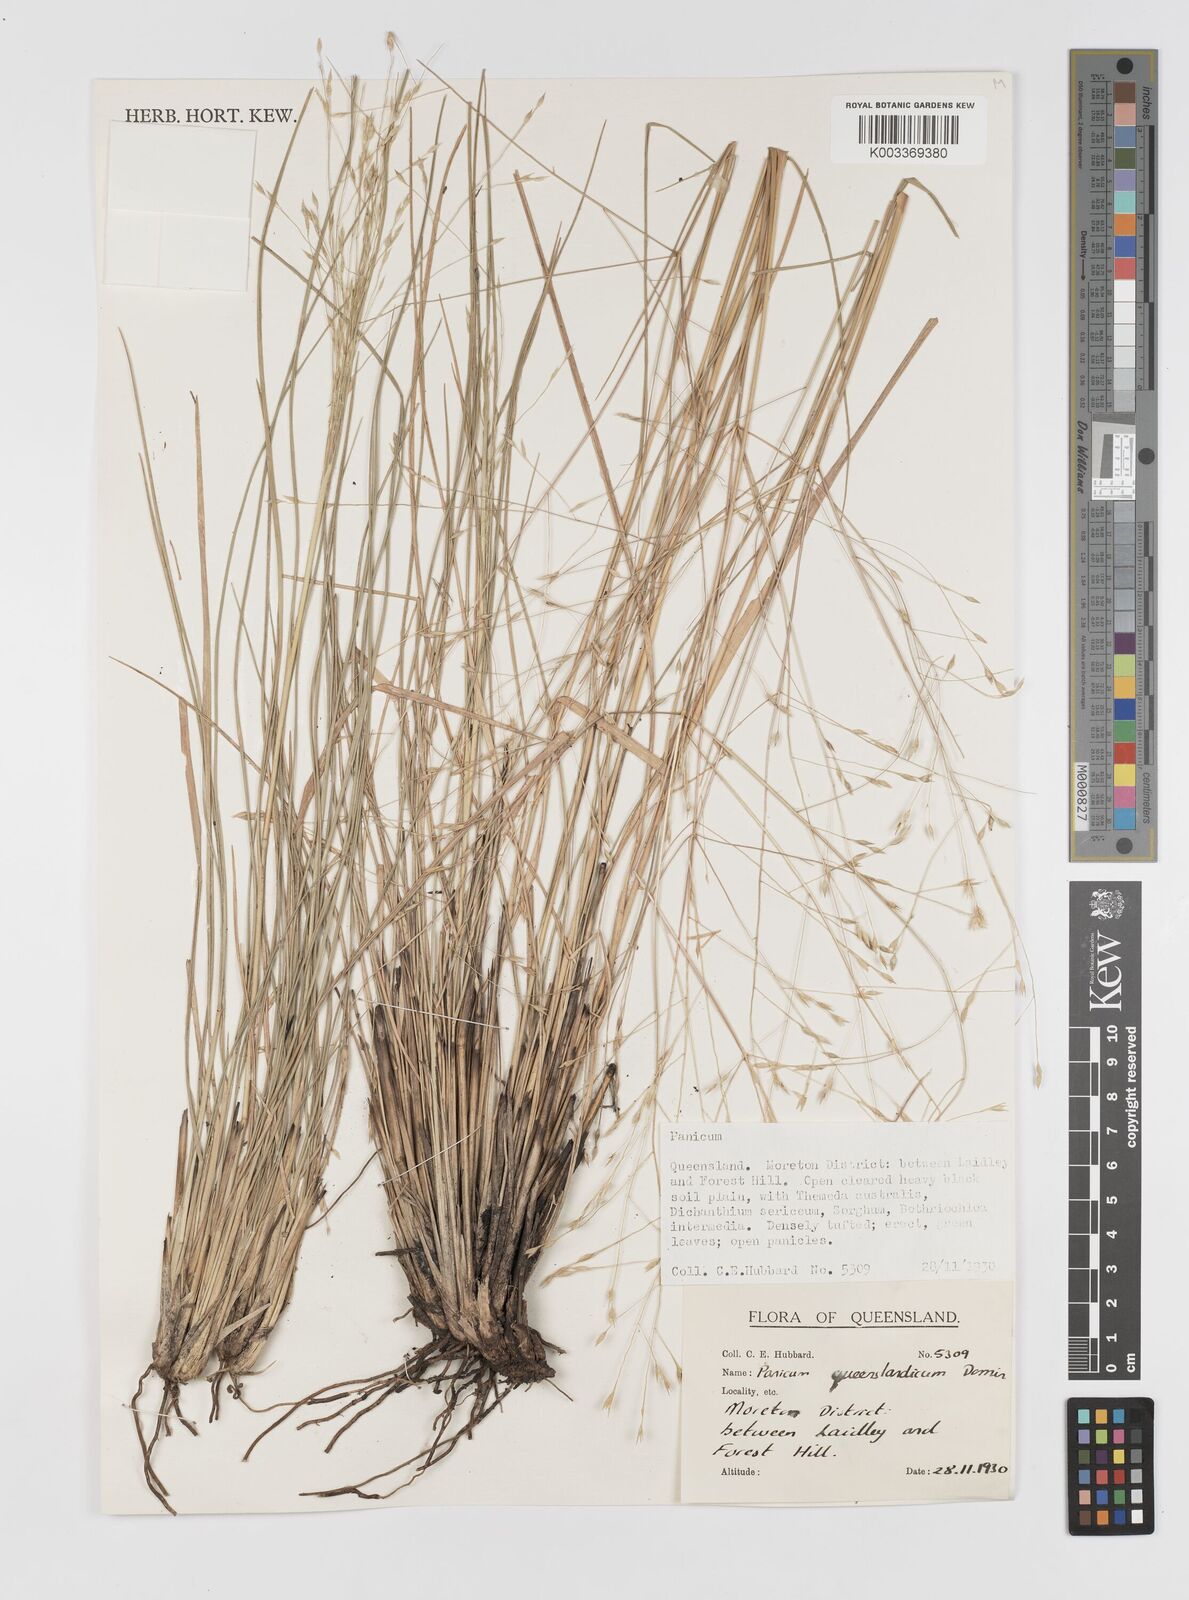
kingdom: Plantae
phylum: Tracheophyta
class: Liliopsida
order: Poales
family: Poaceae
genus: Panicum
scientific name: Panicum queenslandicum
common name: Yabila grass
